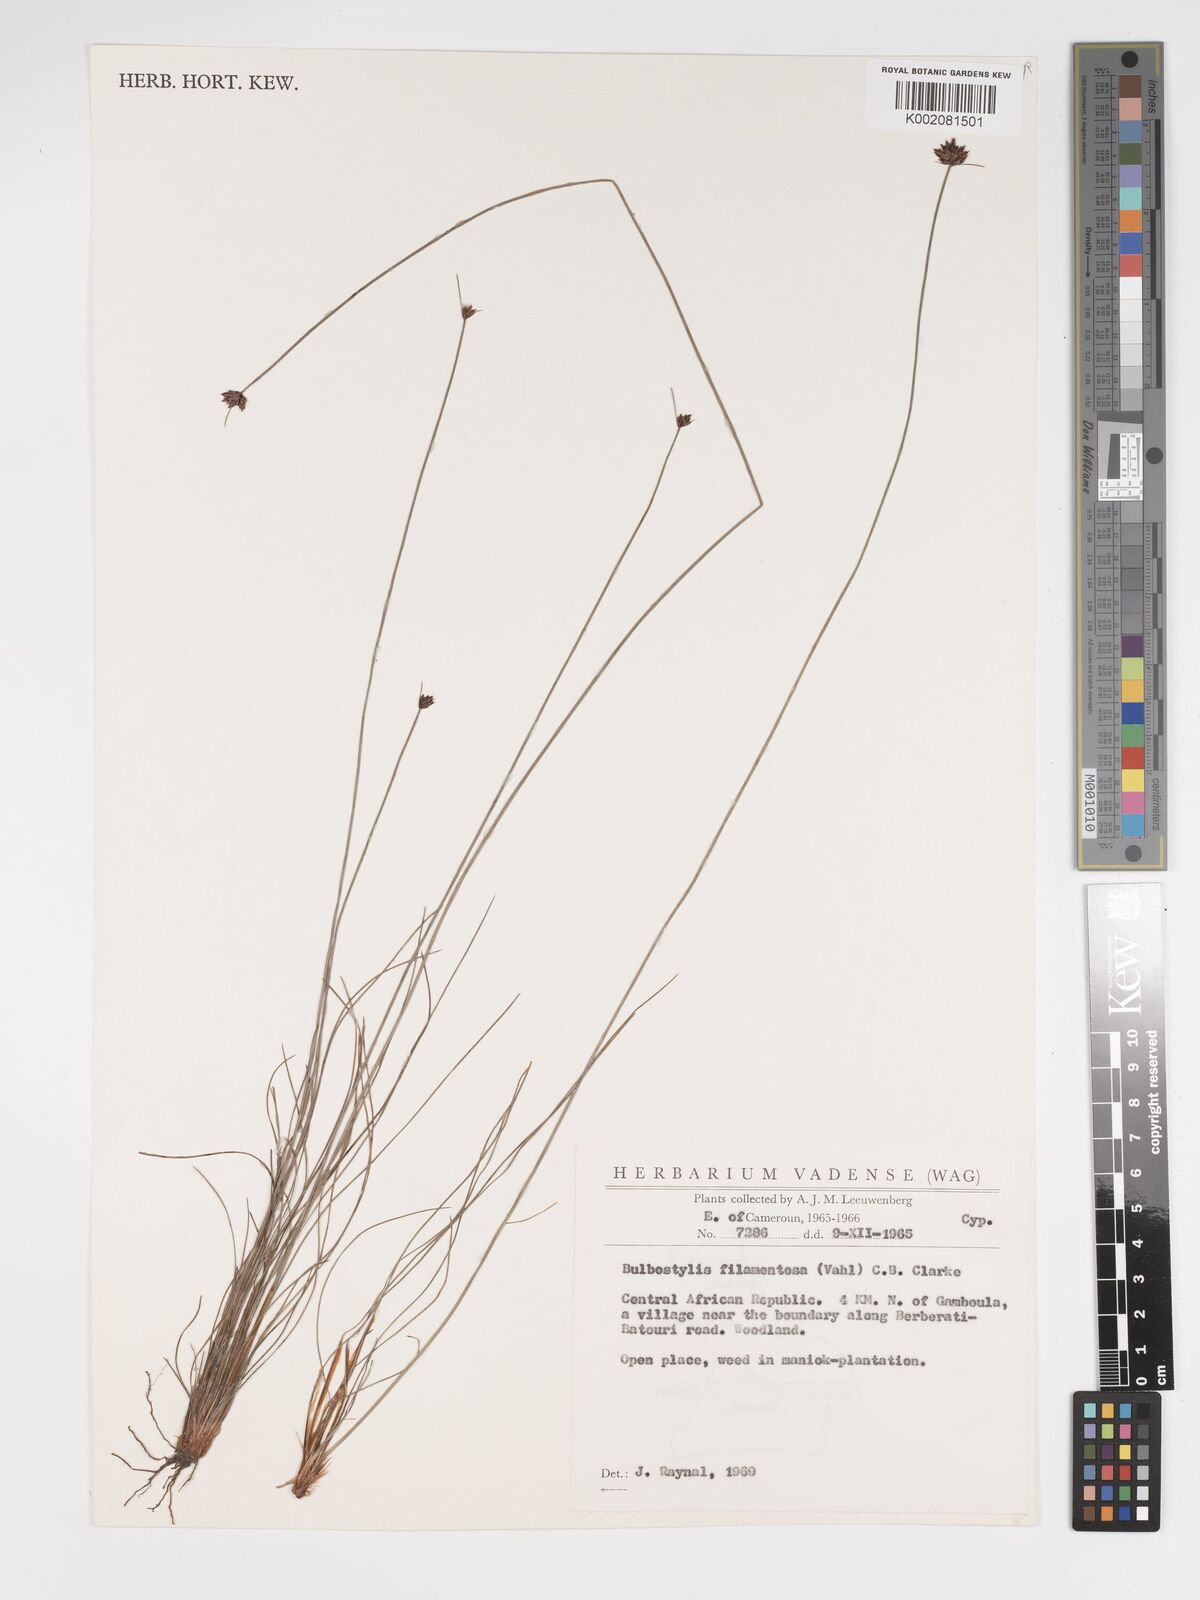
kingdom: Plantae
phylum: Tracheophyta
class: Liliopsida
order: Poales
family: Cyperaceae
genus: Bulbostylis
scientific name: Bulbostylis scabricaulis
